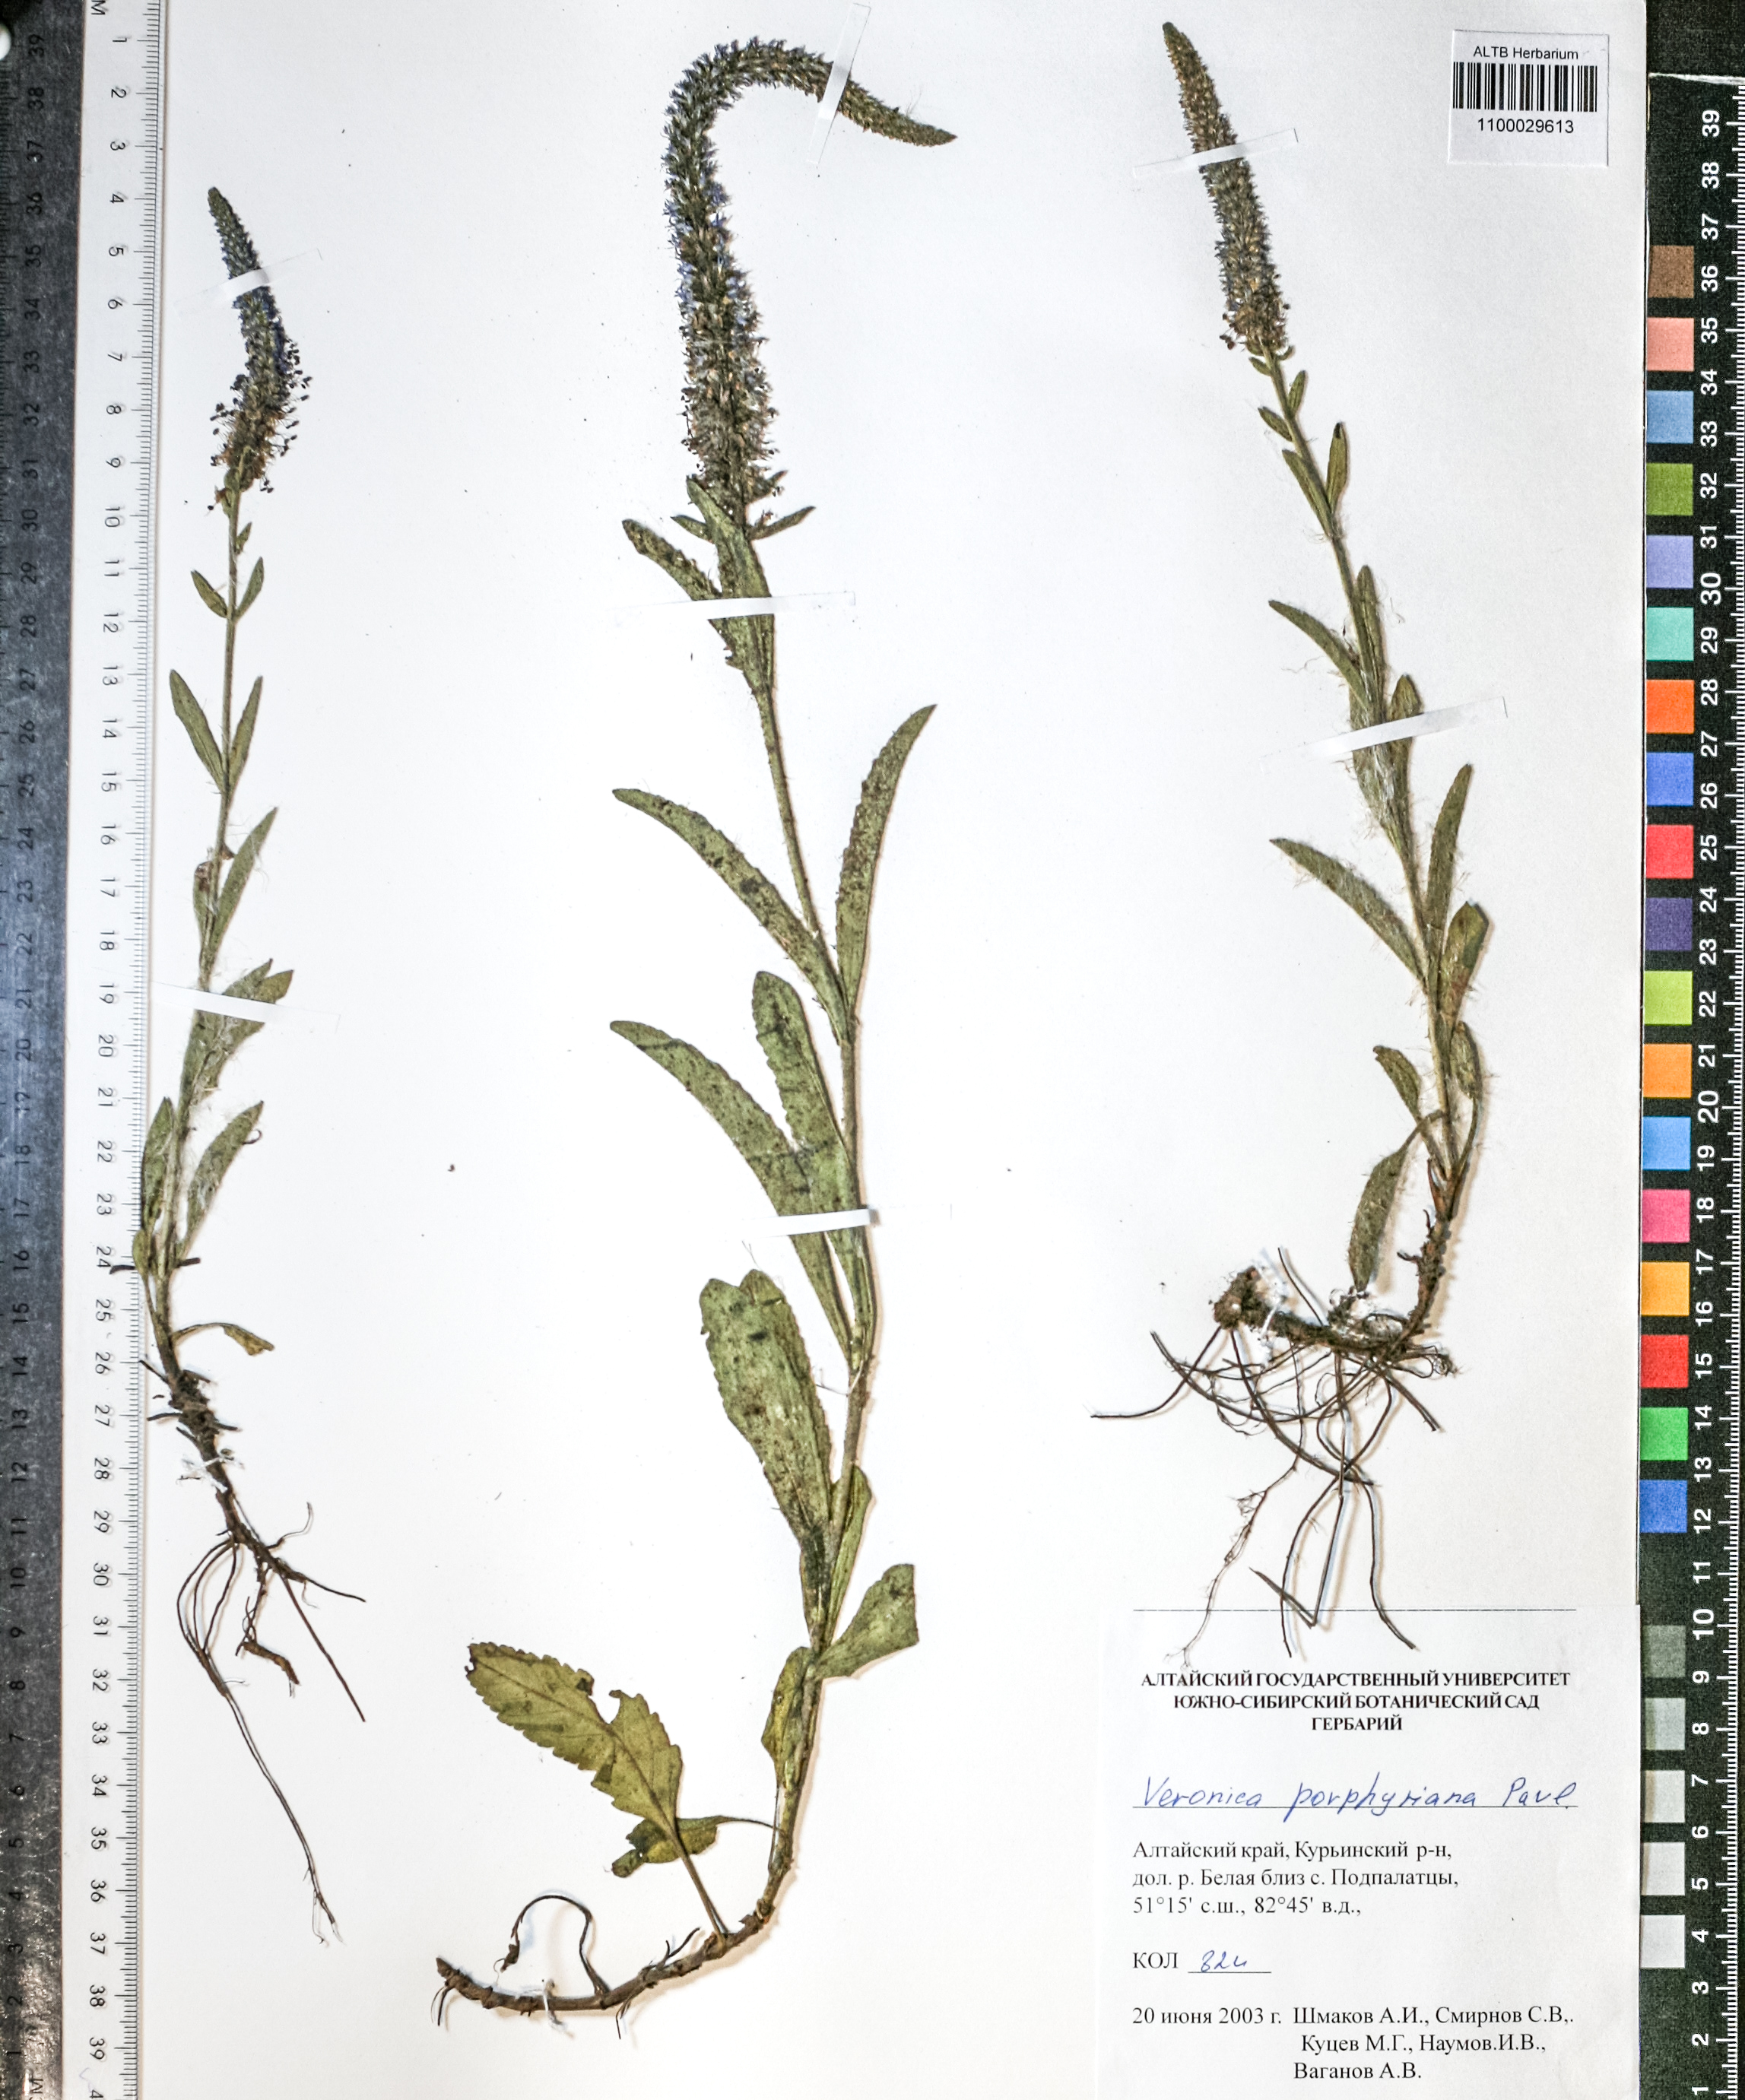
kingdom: Plantae
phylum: Tracheophyta
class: Magnoliopsida
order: Lamiales
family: Plantaginaceae
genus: Veronica
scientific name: Veronica porphyriana
